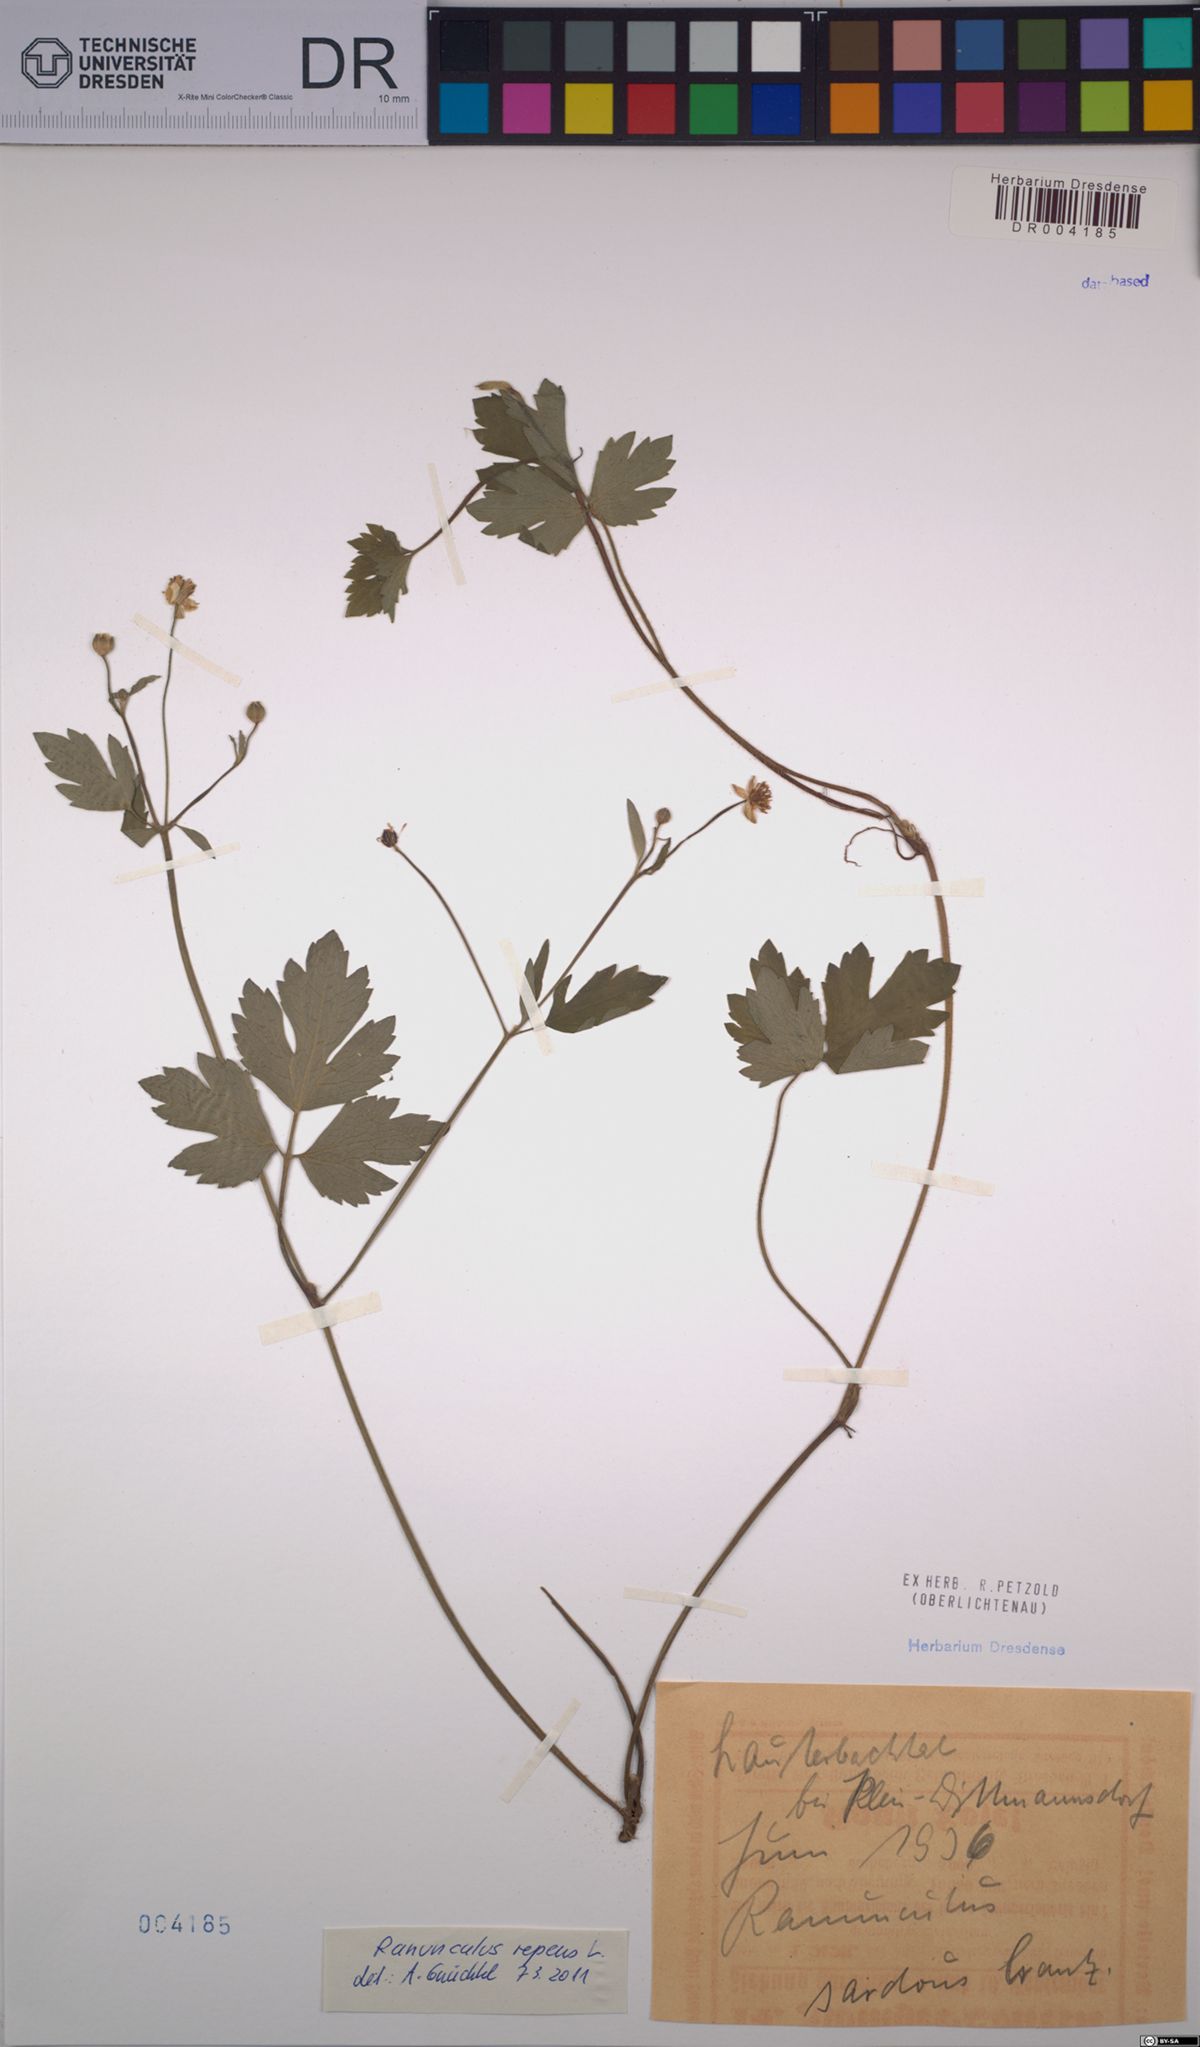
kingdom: Plantae
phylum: Tracheophyta
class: Magnoliopsida
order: Ranunculales
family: Ranunculaceae
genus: Ranunculus
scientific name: Ranunculus repens
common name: Creeping buttercup
